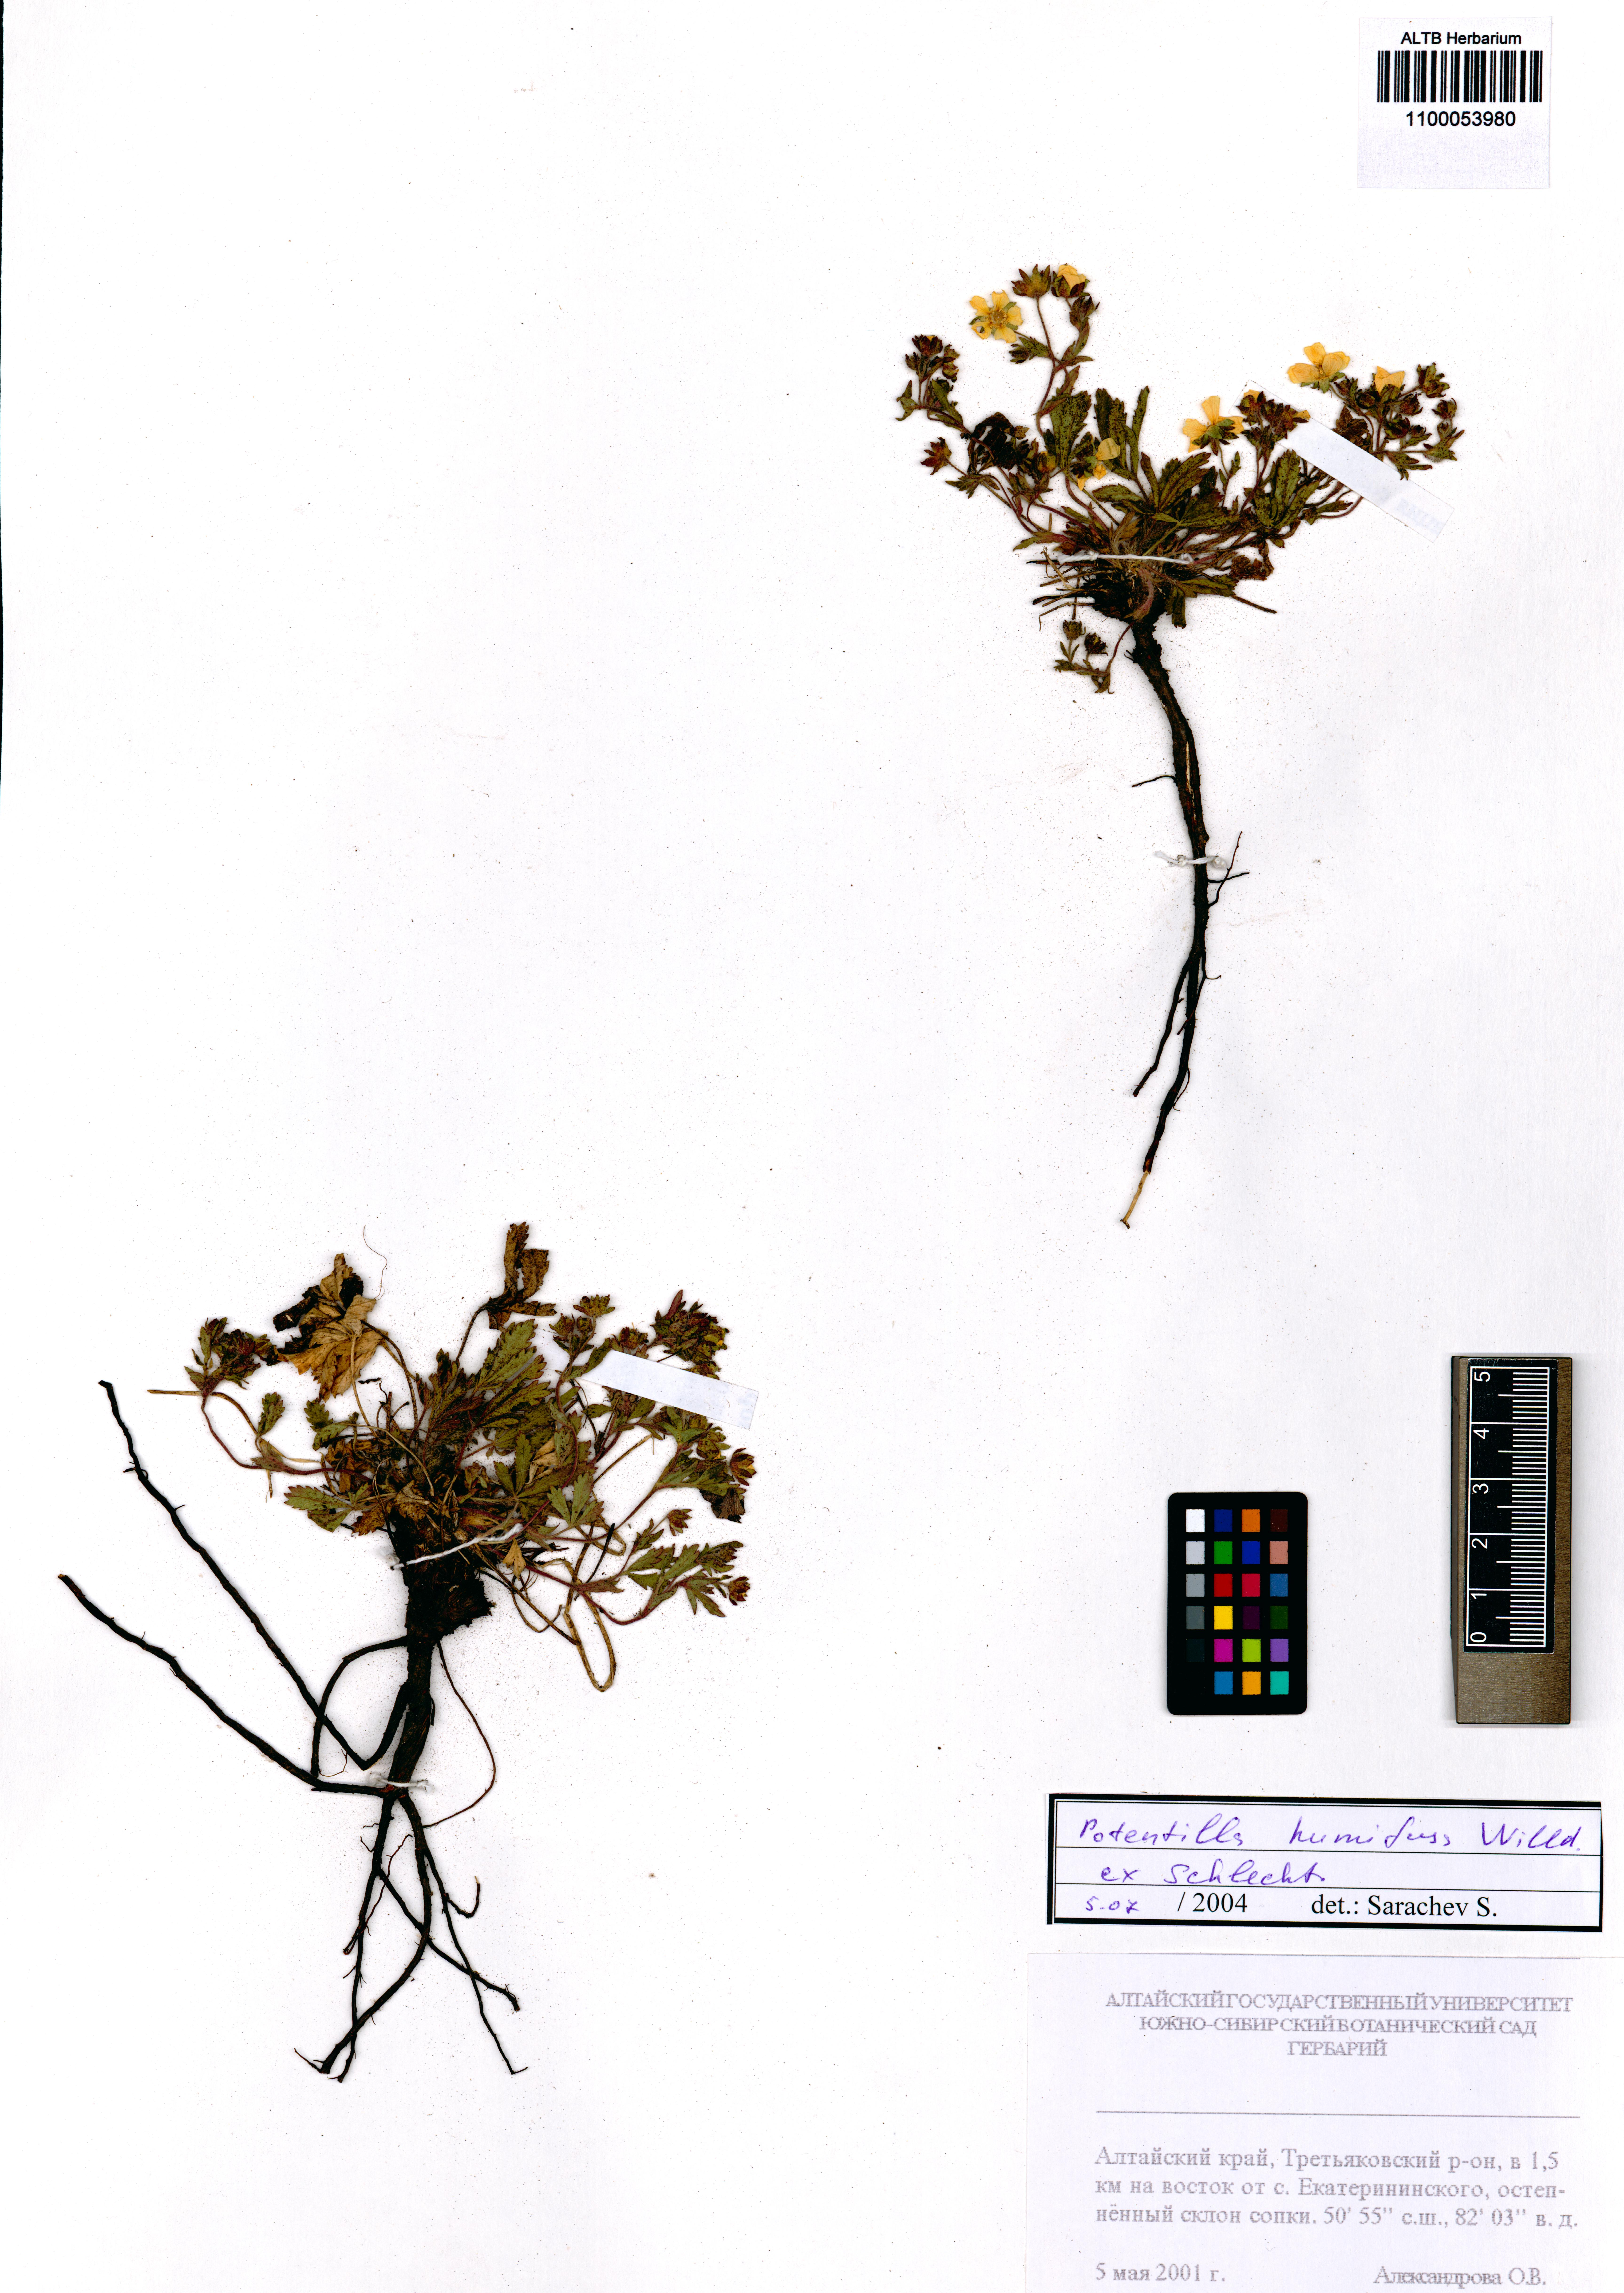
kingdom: Plantae
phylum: Tracheophyta
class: Magnoliopsida
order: Rosales
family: Rosaceae
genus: Potentilla
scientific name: Potentilla humifusa
